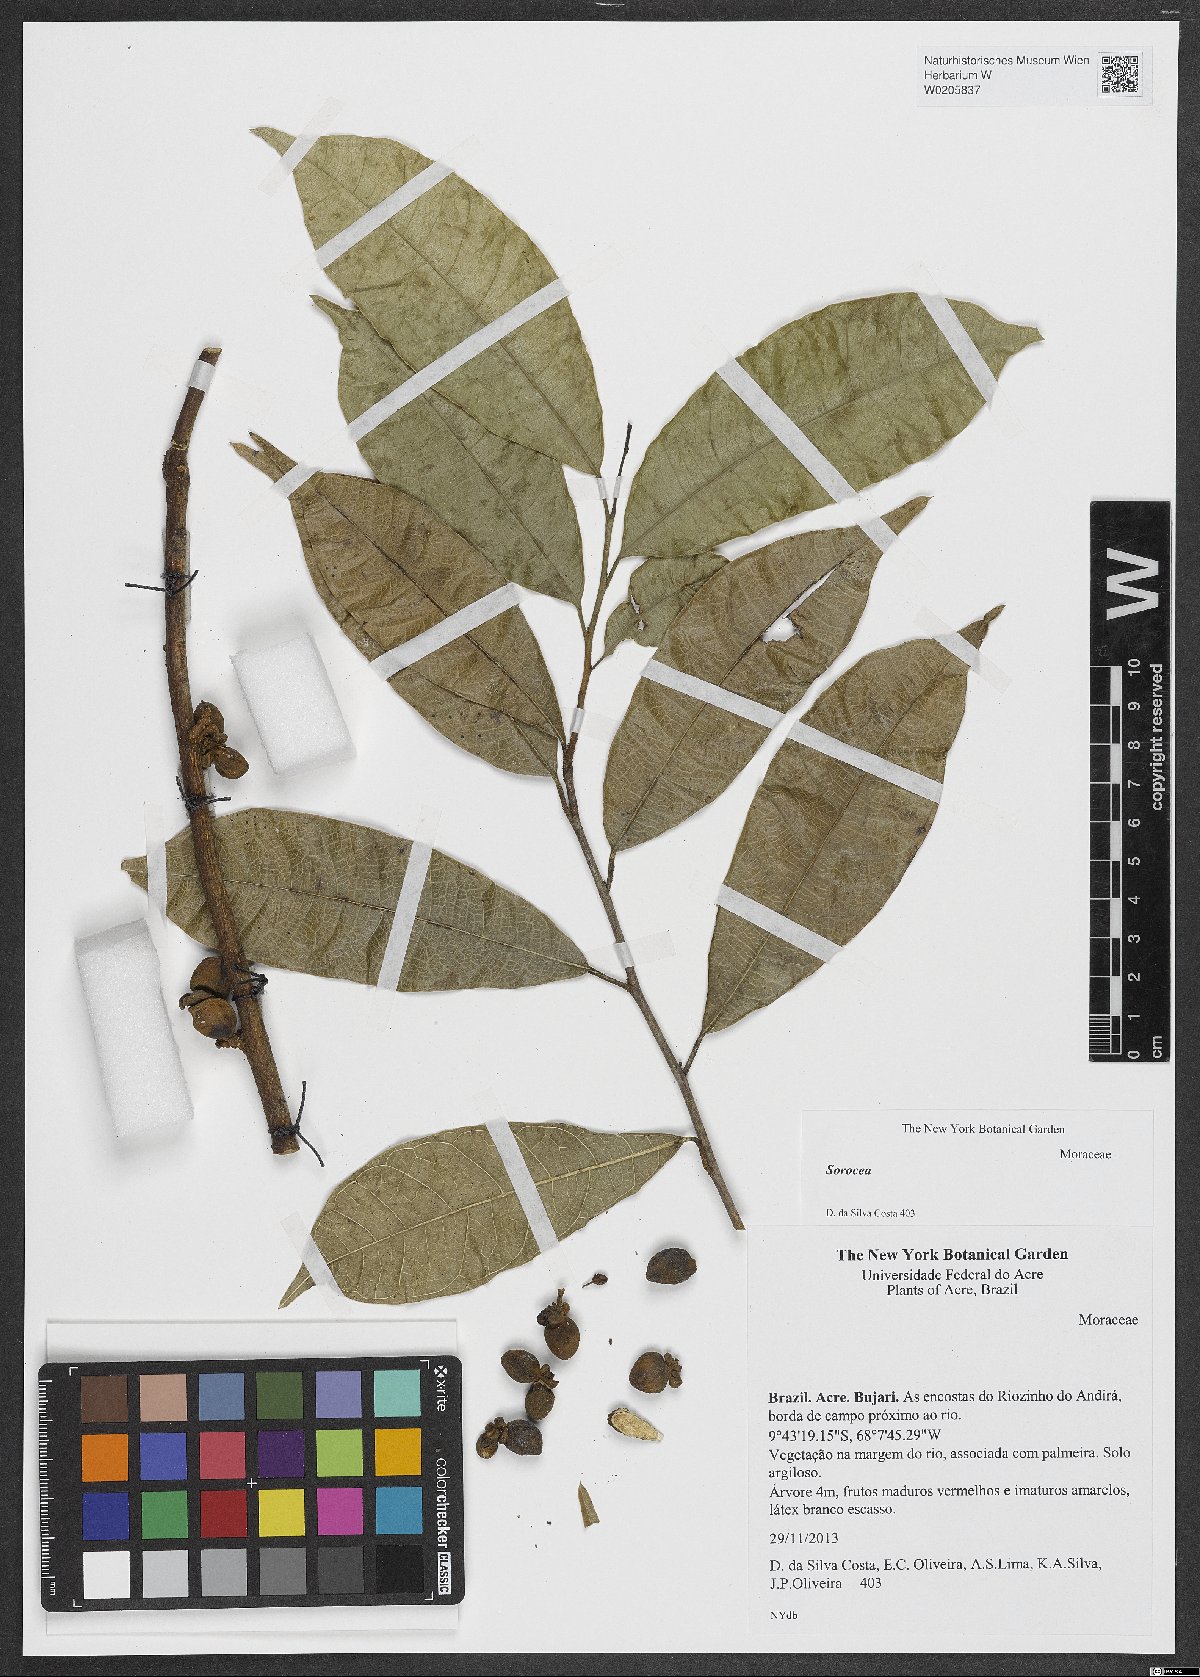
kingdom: Plantae
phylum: Tracheophyta
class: Magnoliopsida
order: Rosales
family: Moraceae
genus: Sorocea
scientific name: Sorocea
